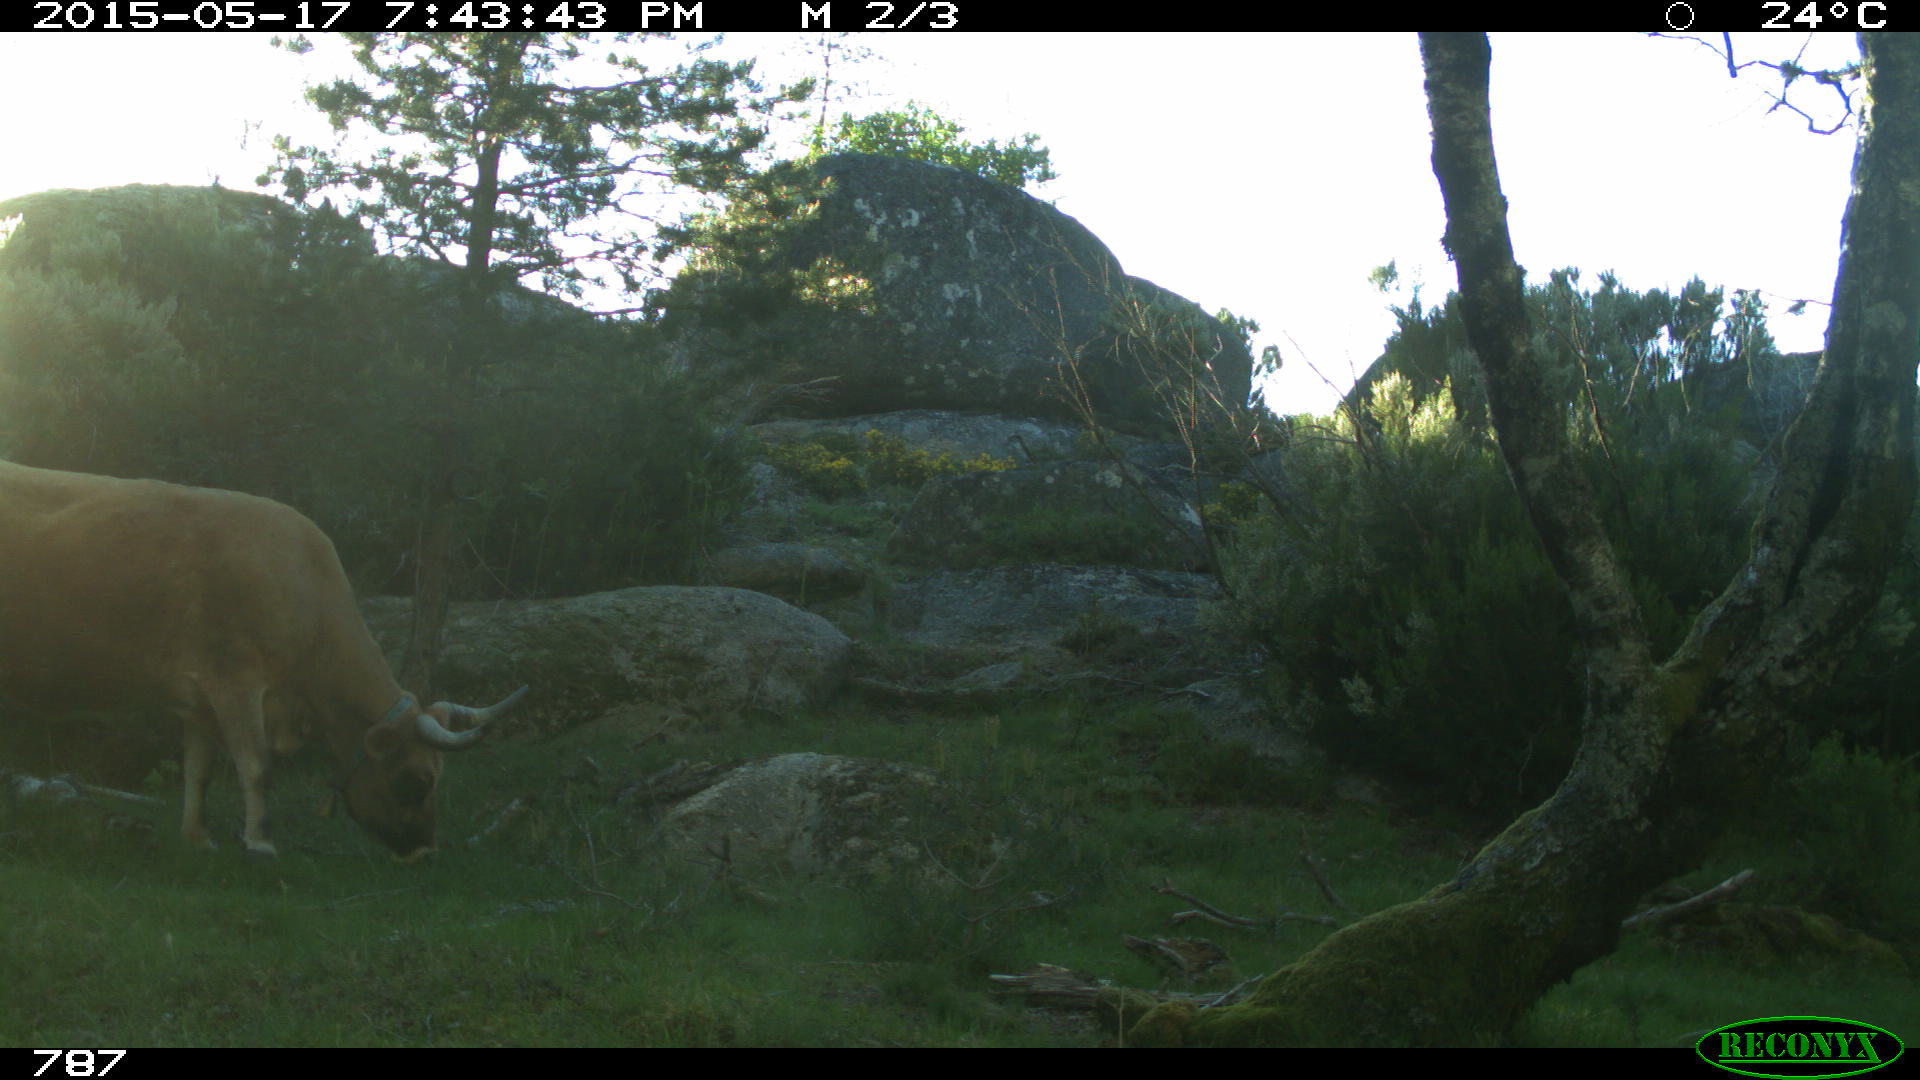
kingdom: Animalia
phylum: Chordata
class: Mammalia
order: Artiodactyla
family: Bovidae
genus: Bos
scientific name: Bos taurus
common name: Domesticated cattle
